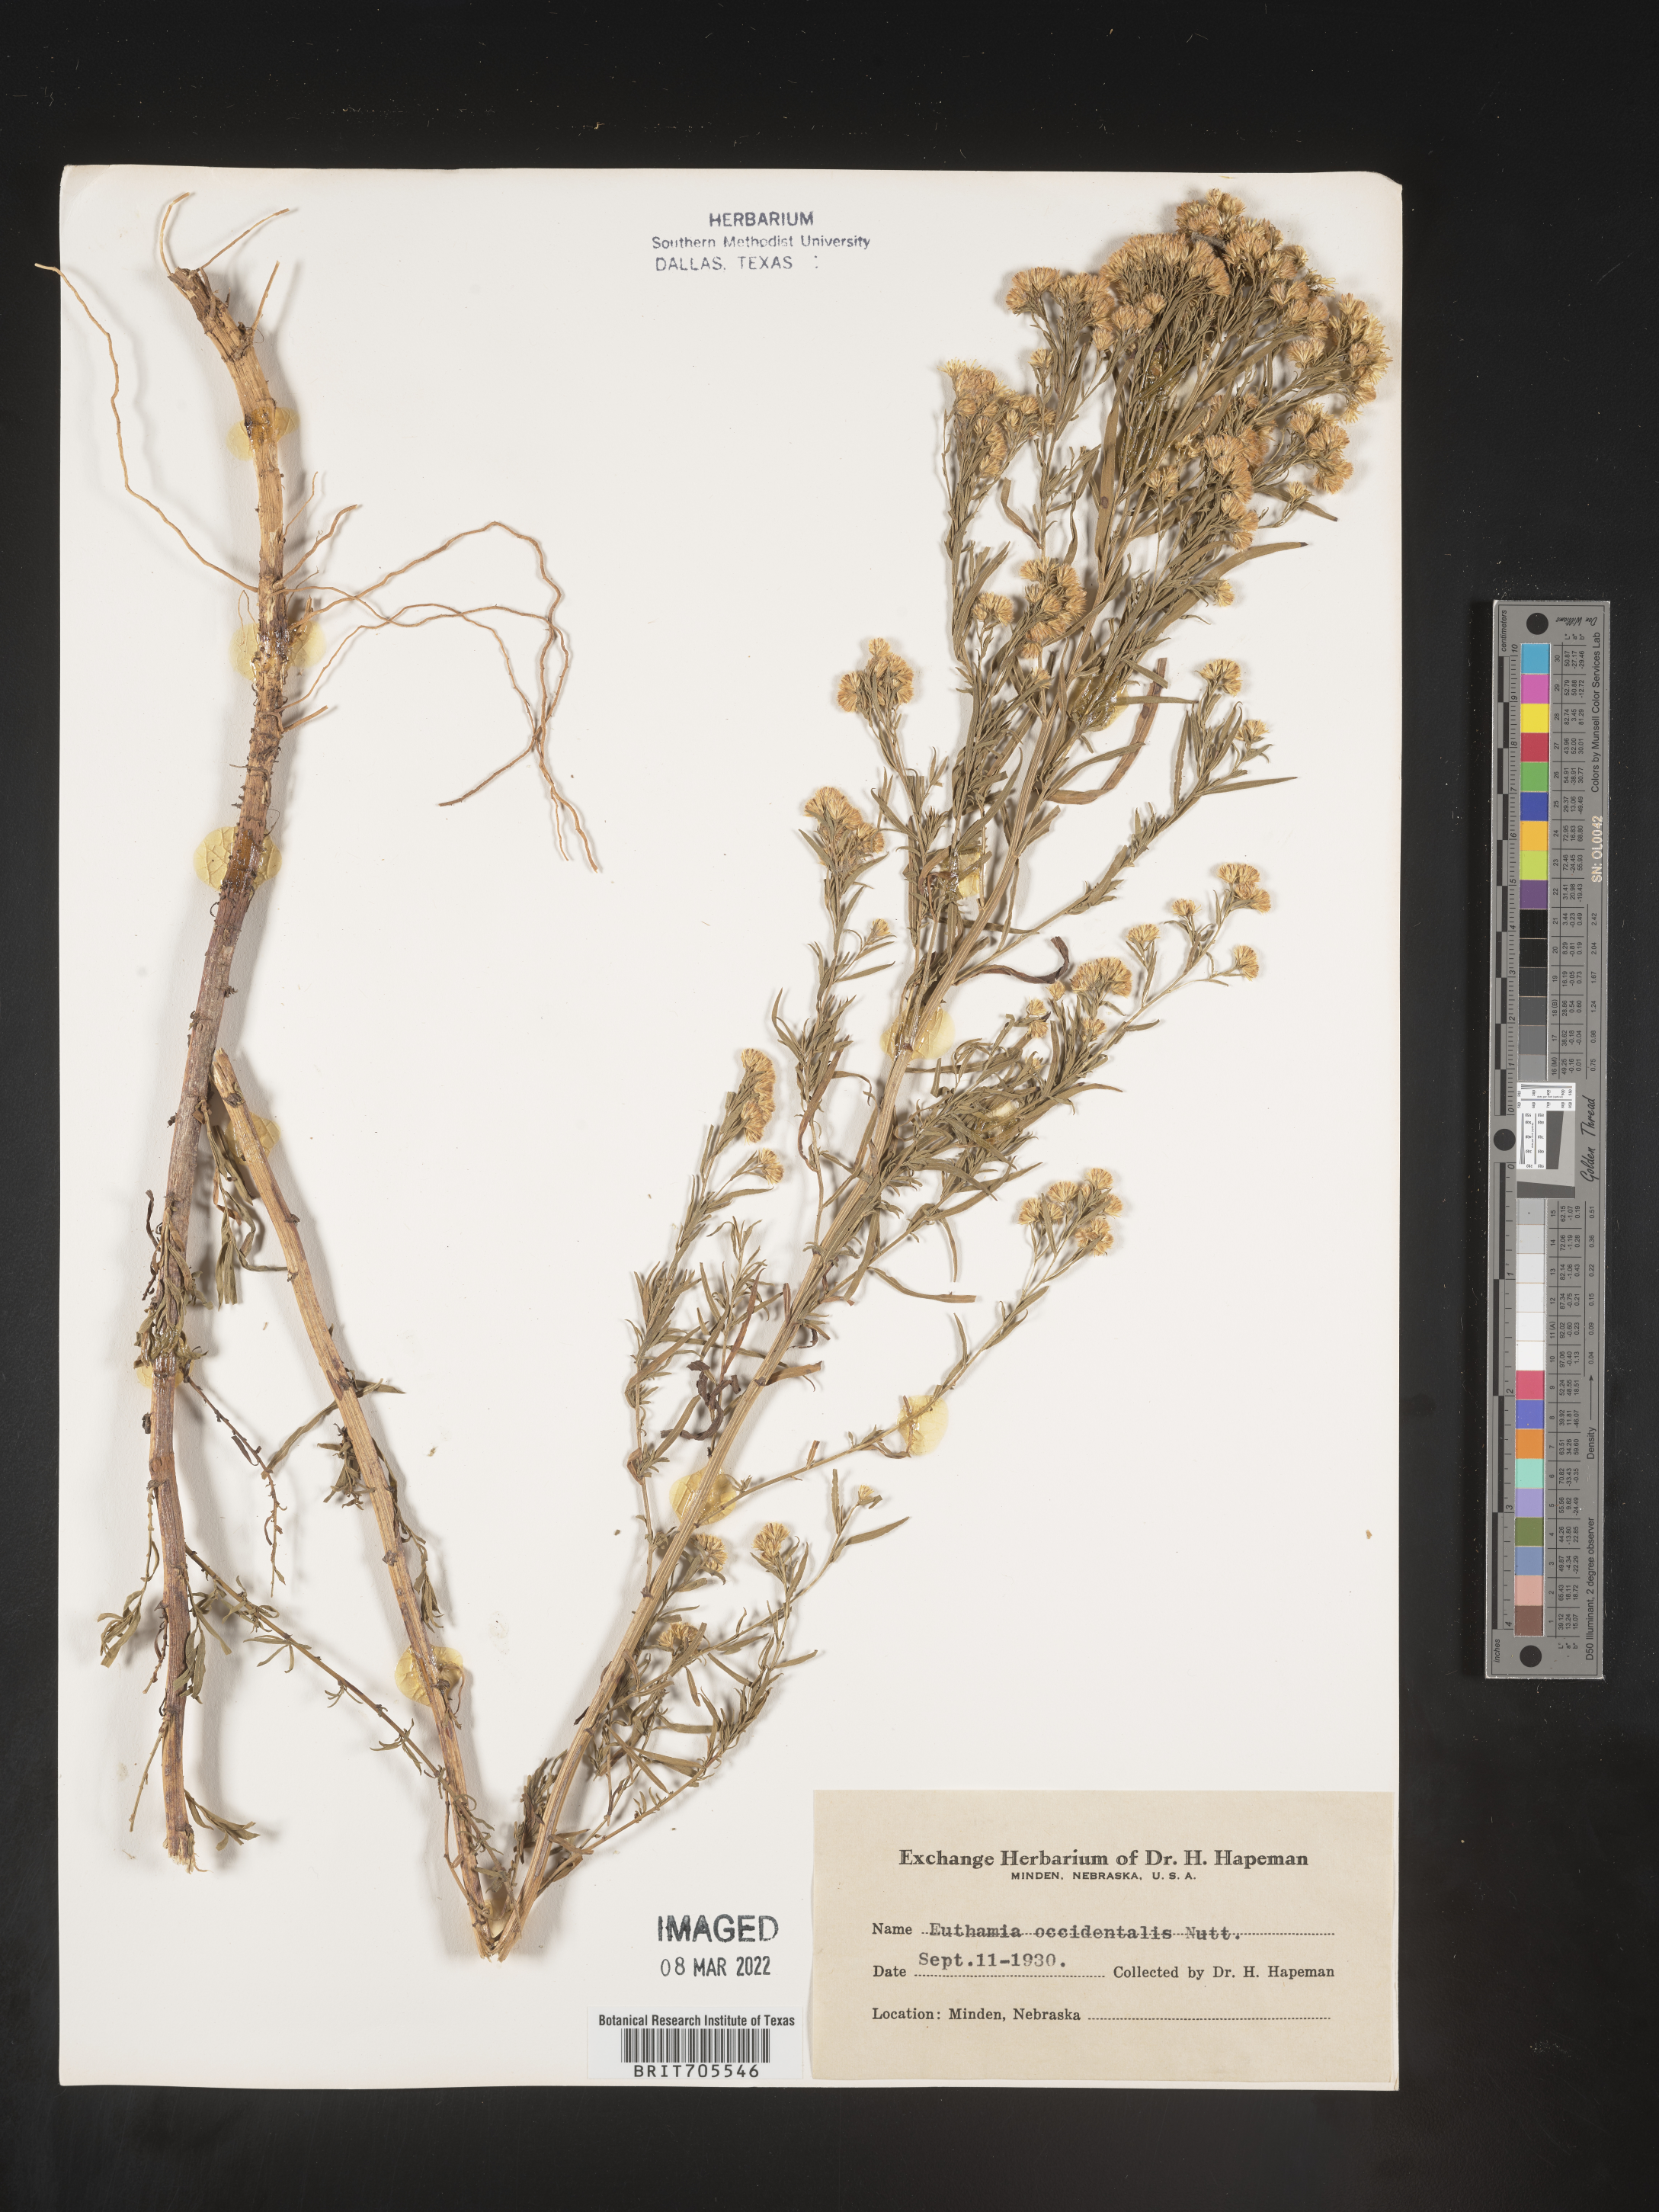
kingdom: Plantae
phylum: Tracheophyta
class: Magnoliopsida
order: Asterales
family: Asteraceae
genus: Euthamia
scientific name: Euthamia occidentalis
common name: Western goldentop
